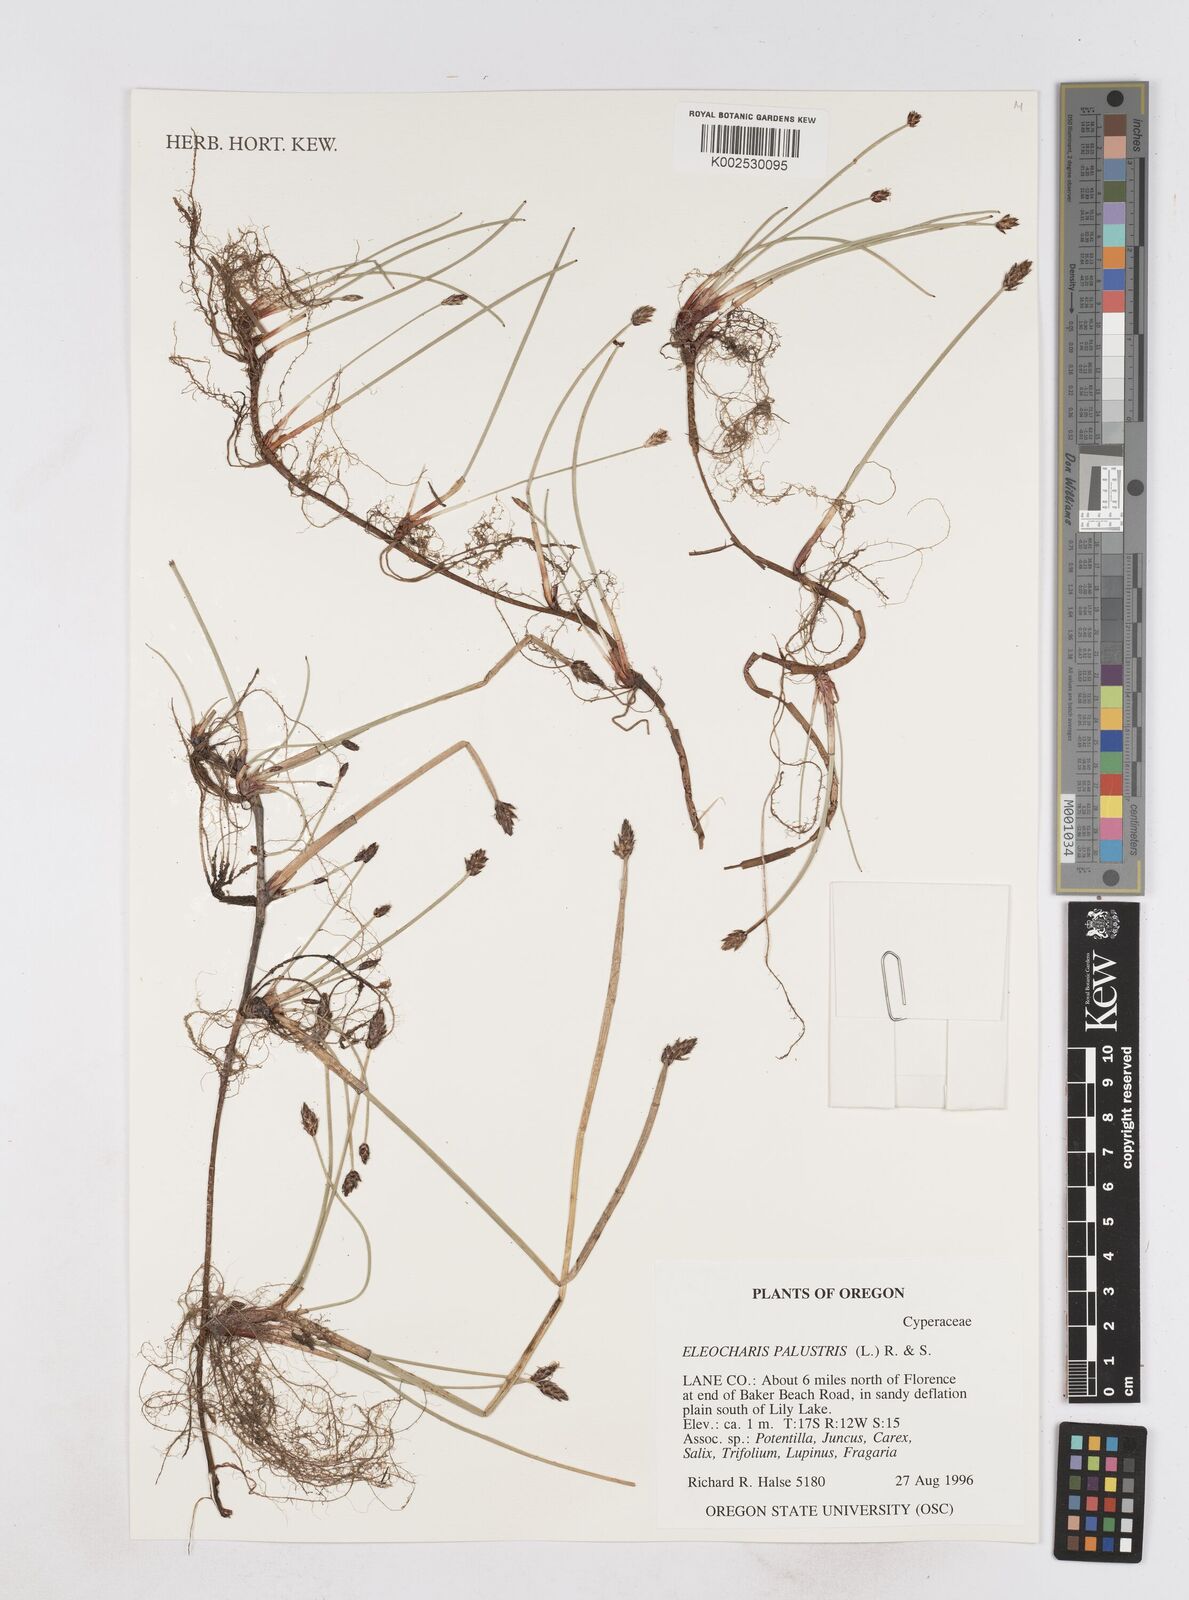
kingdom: Plantae
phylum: Tracheophyta
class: Liliopsida
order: Poales
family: Cyperaceae
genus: Eleocharis
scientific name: Eleocharis palustris
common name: Common spike-rush
